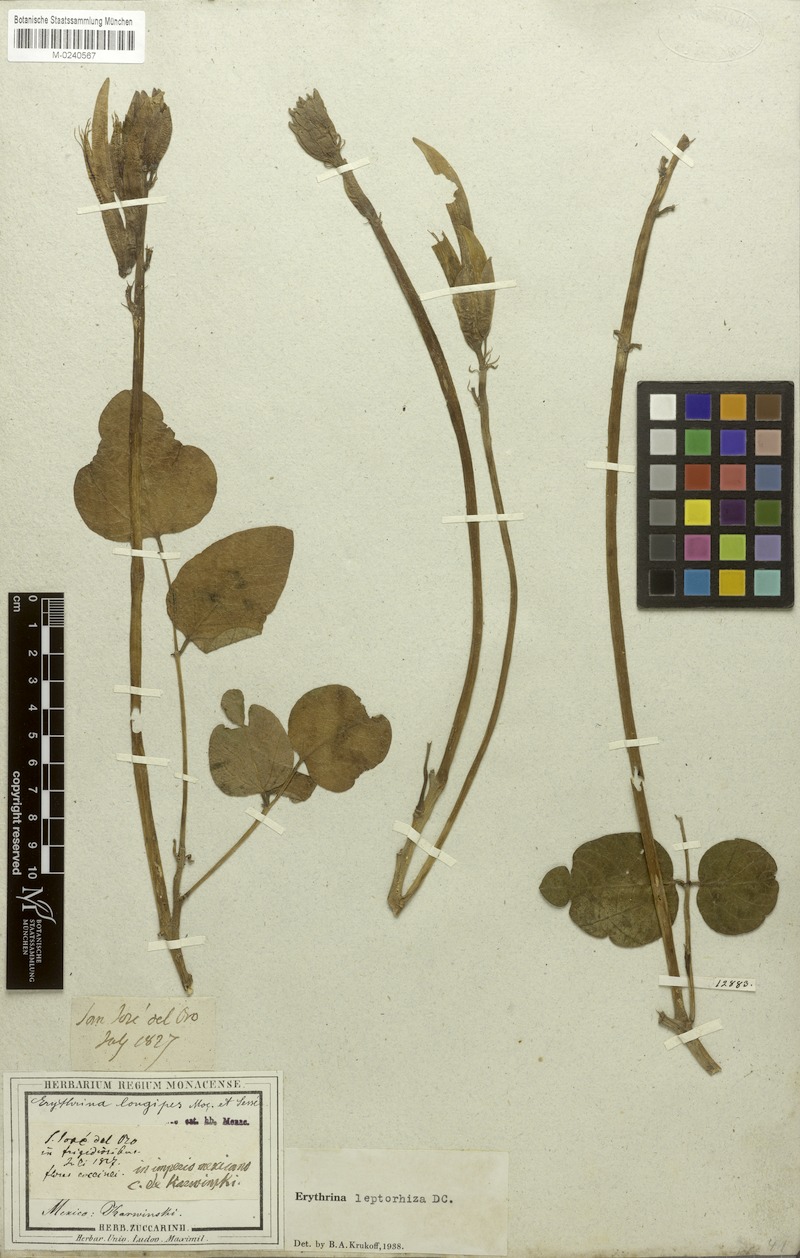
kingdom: Plantae
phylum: Tracheophyta
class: Magnoliopsida
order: Fabales
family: Fabaceae
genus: Erythrina
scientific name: Erythrina leptorhiza
